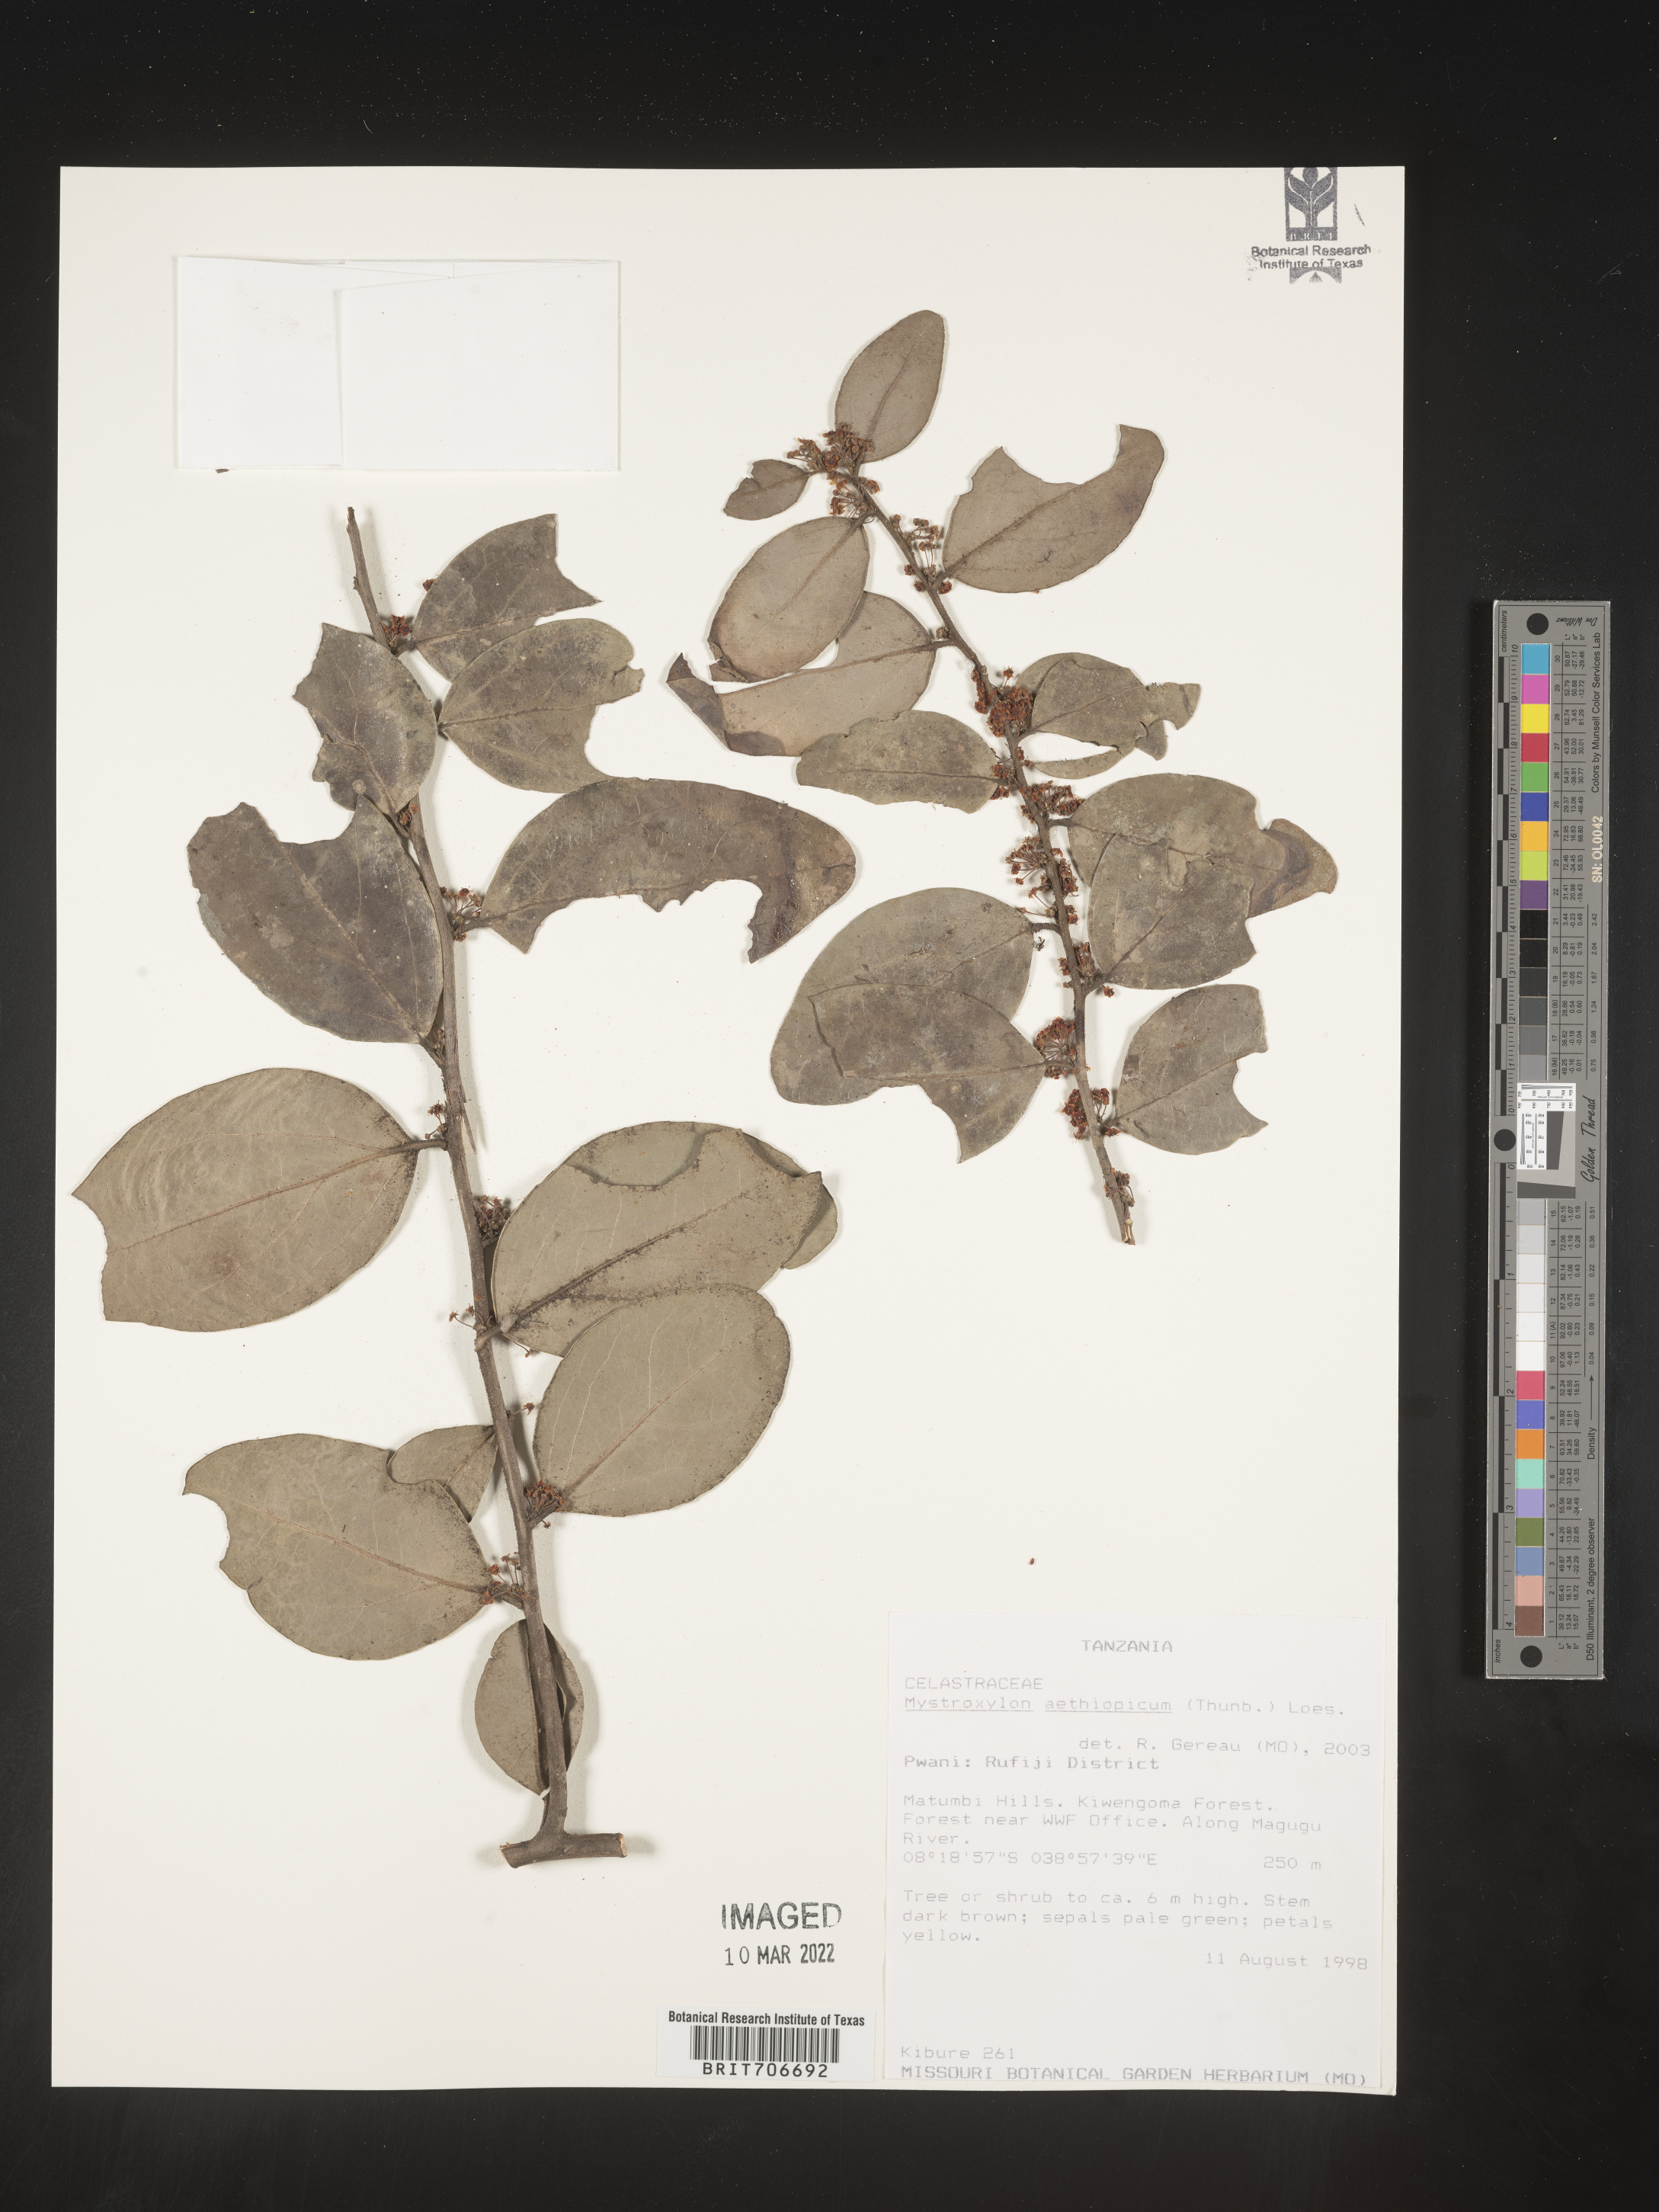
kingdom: Plantae
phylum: Tracheophyta
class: Magnoliopsida
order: Celastrales
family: Celastraceae
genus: Mystroxylon
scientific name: Mystroxylon
